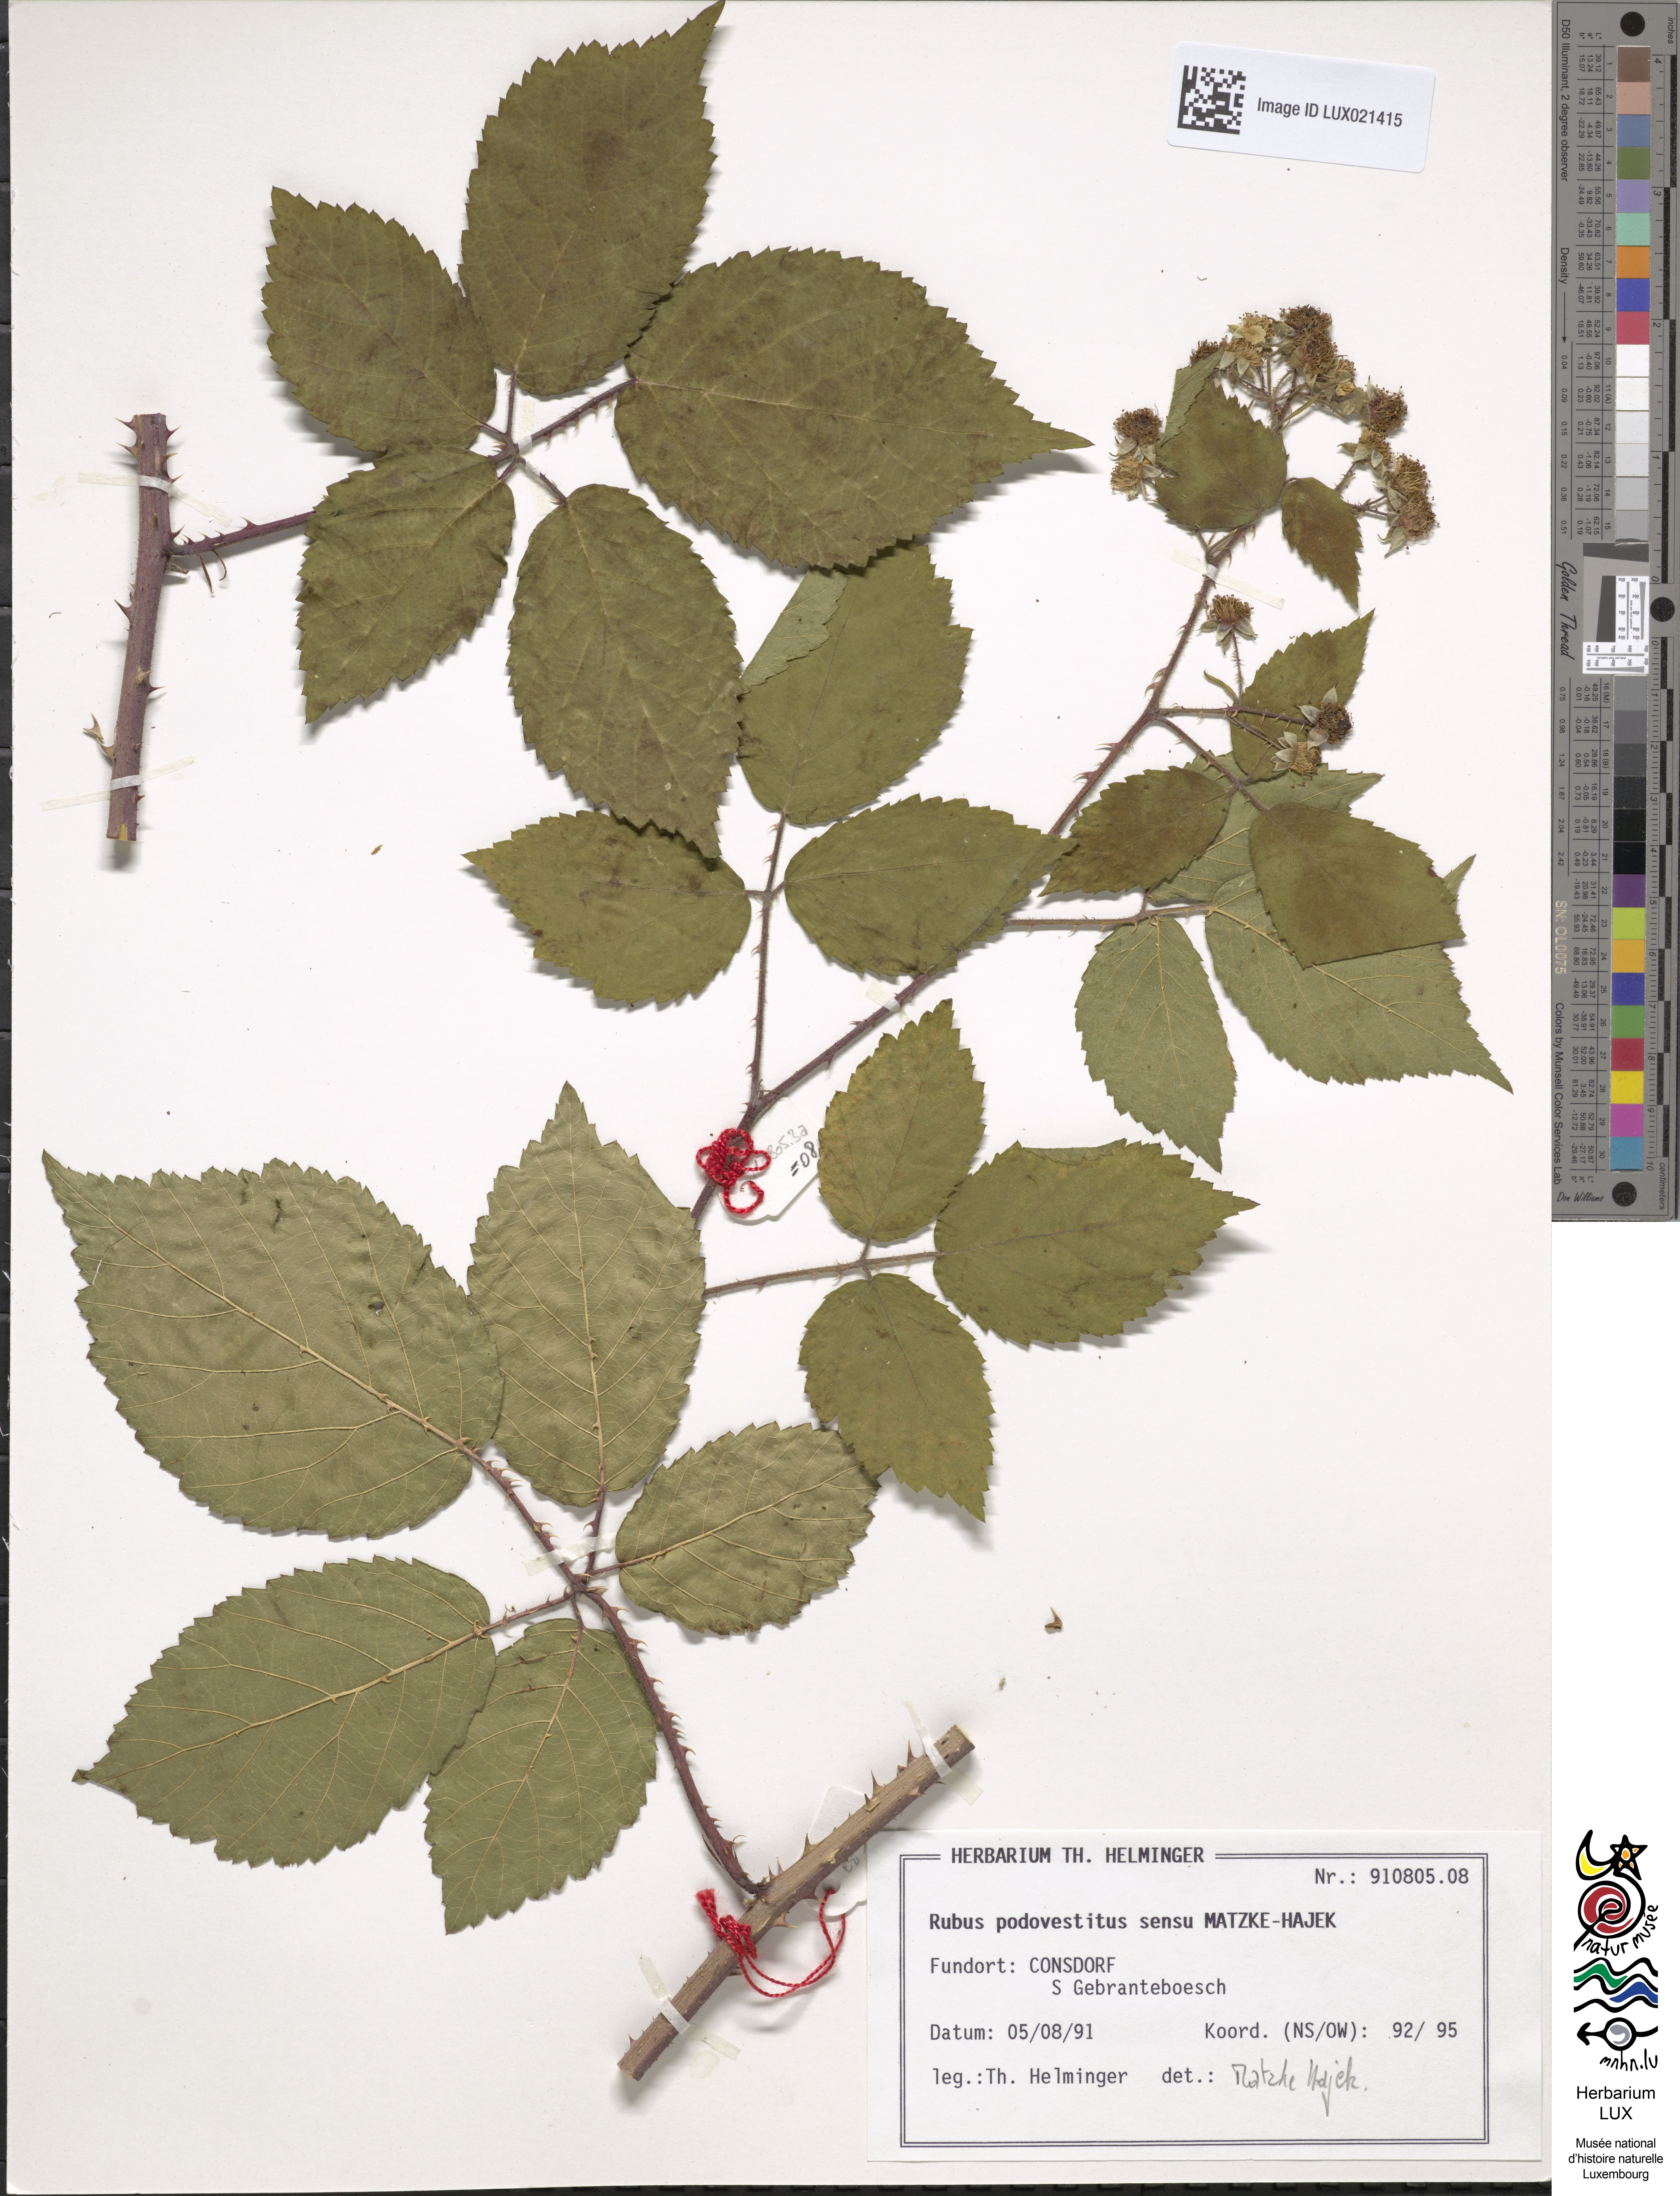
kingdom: Plantae
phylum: Tracheophyta
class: Magnoliopsida
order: Rosales
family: Rosaceae
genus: Rubus
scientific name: Rubus
